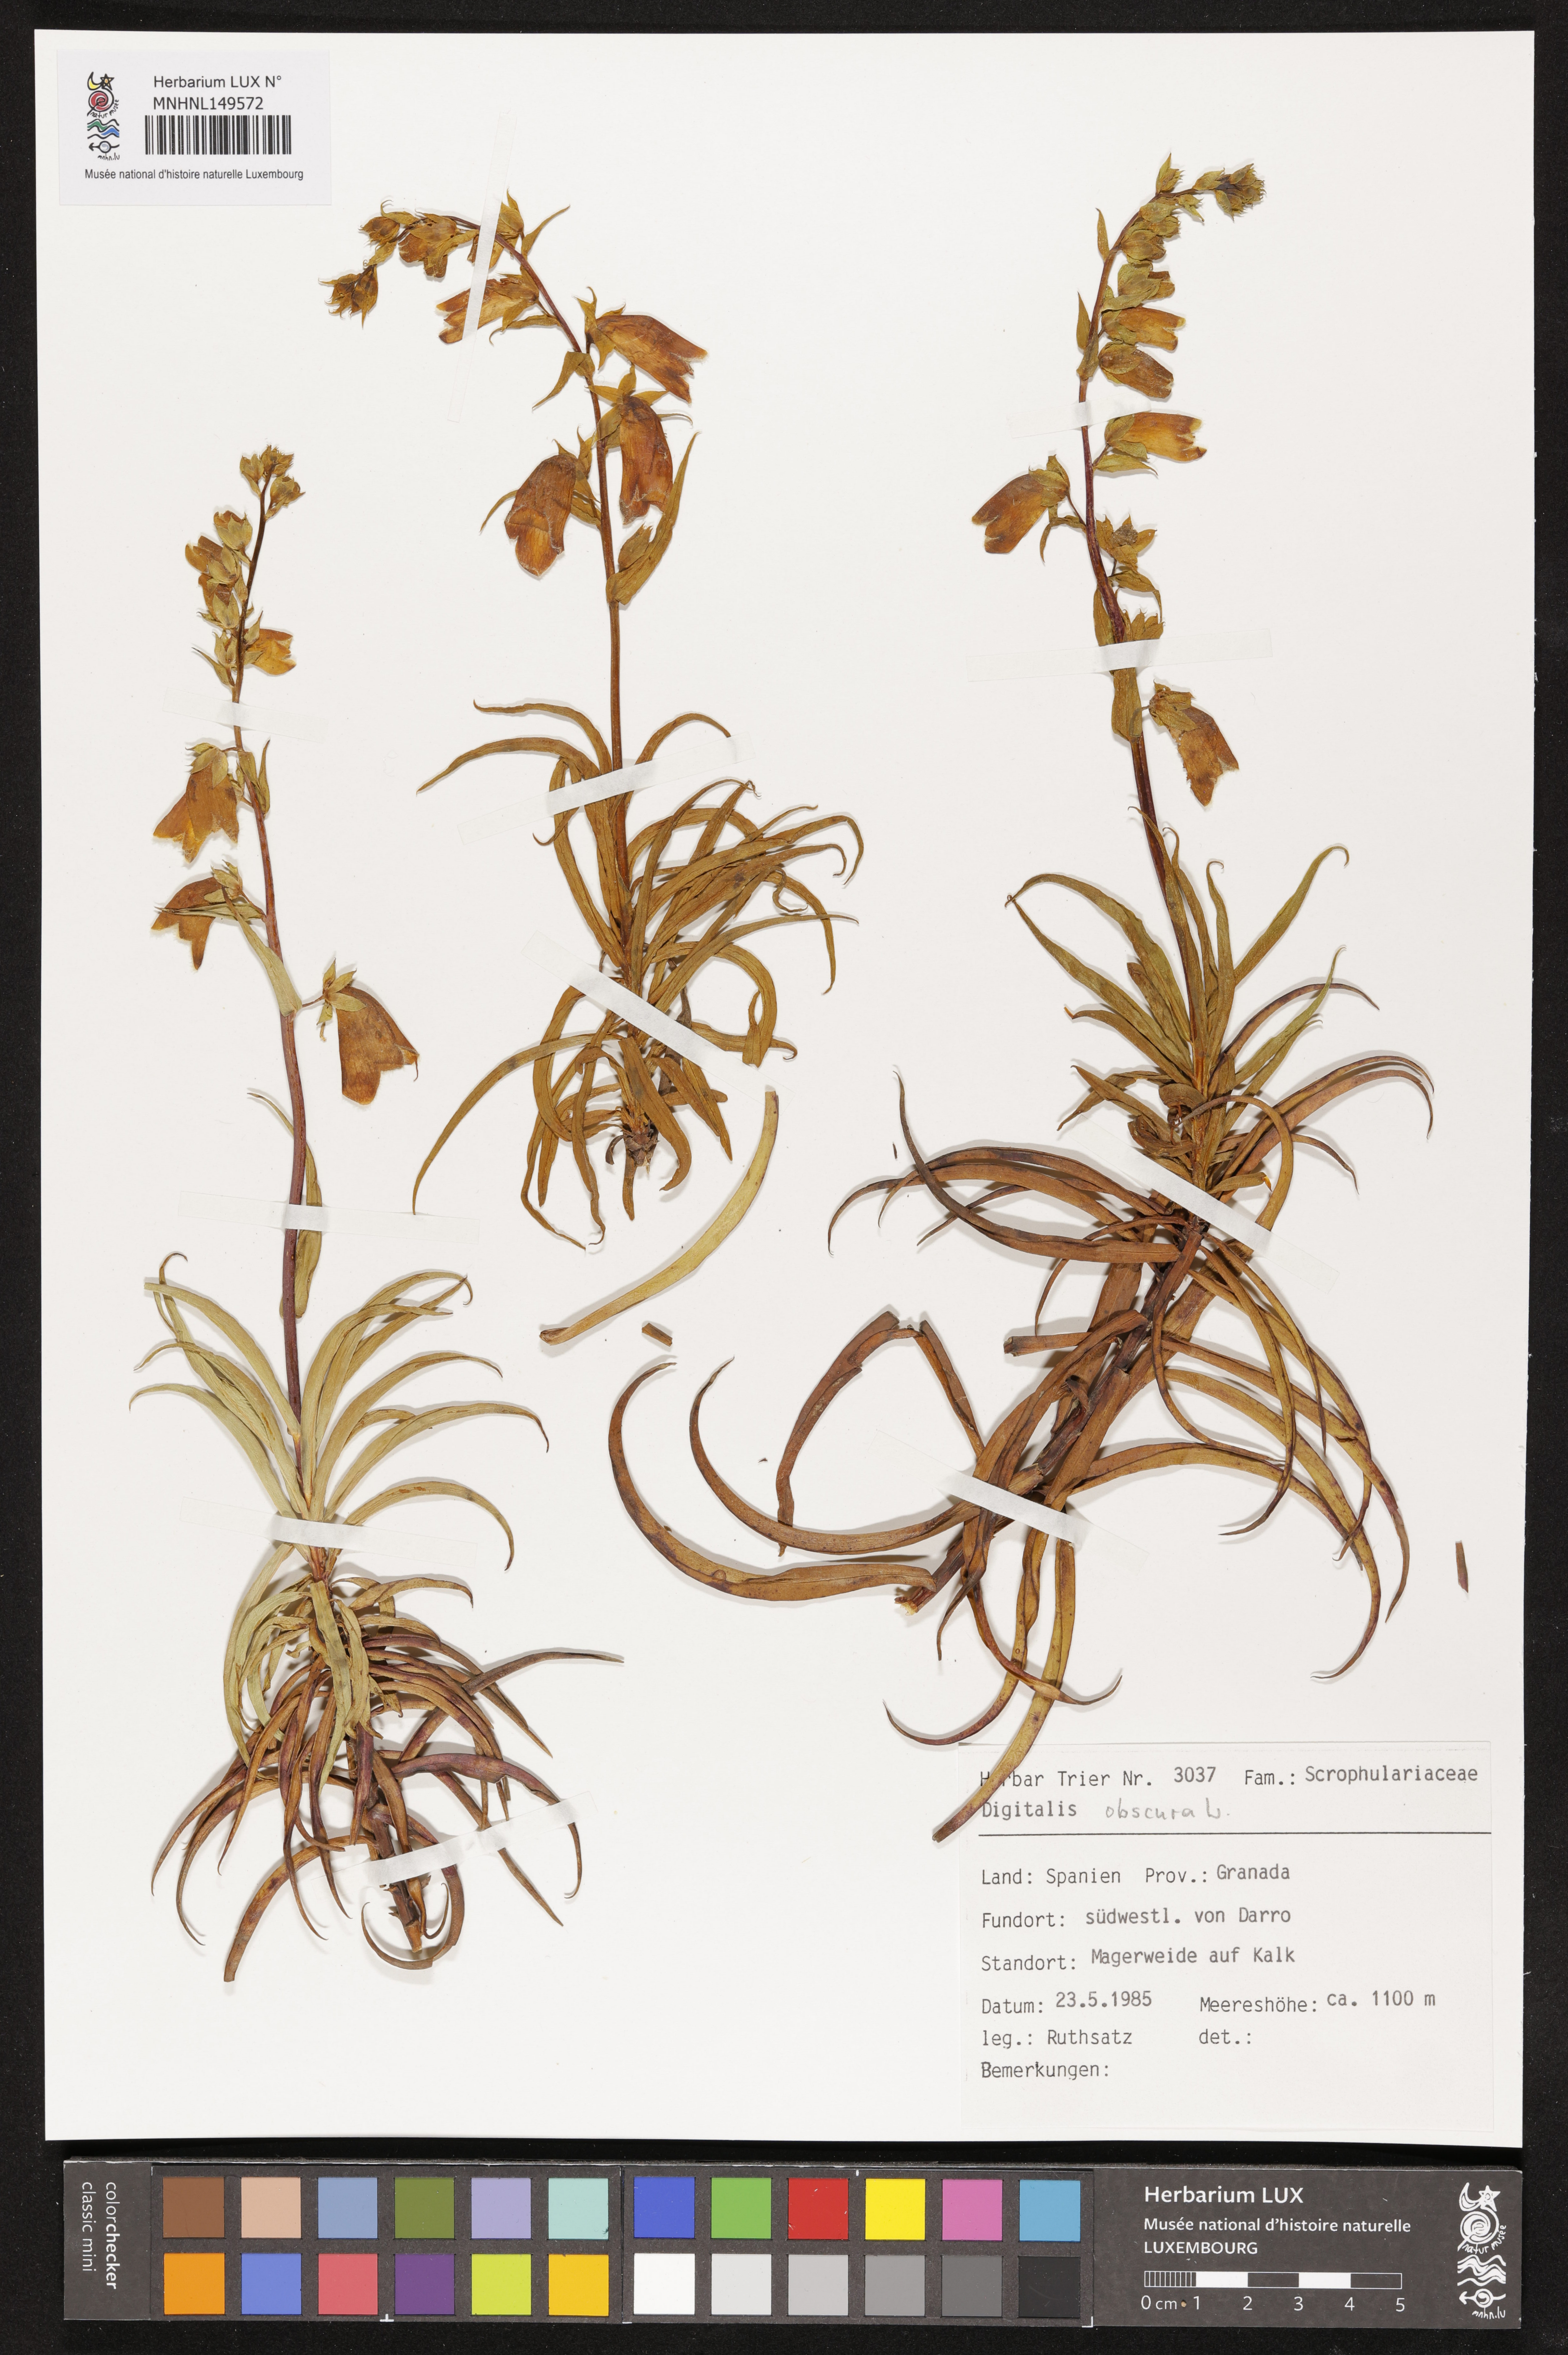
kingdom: Plantae
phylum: Tracheophyta
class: Magnoliopsida
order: Lamiales
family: Plantaginaceae
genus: Digitalis
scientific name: Digitalis obscura
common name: Willow-leaf foxglove
